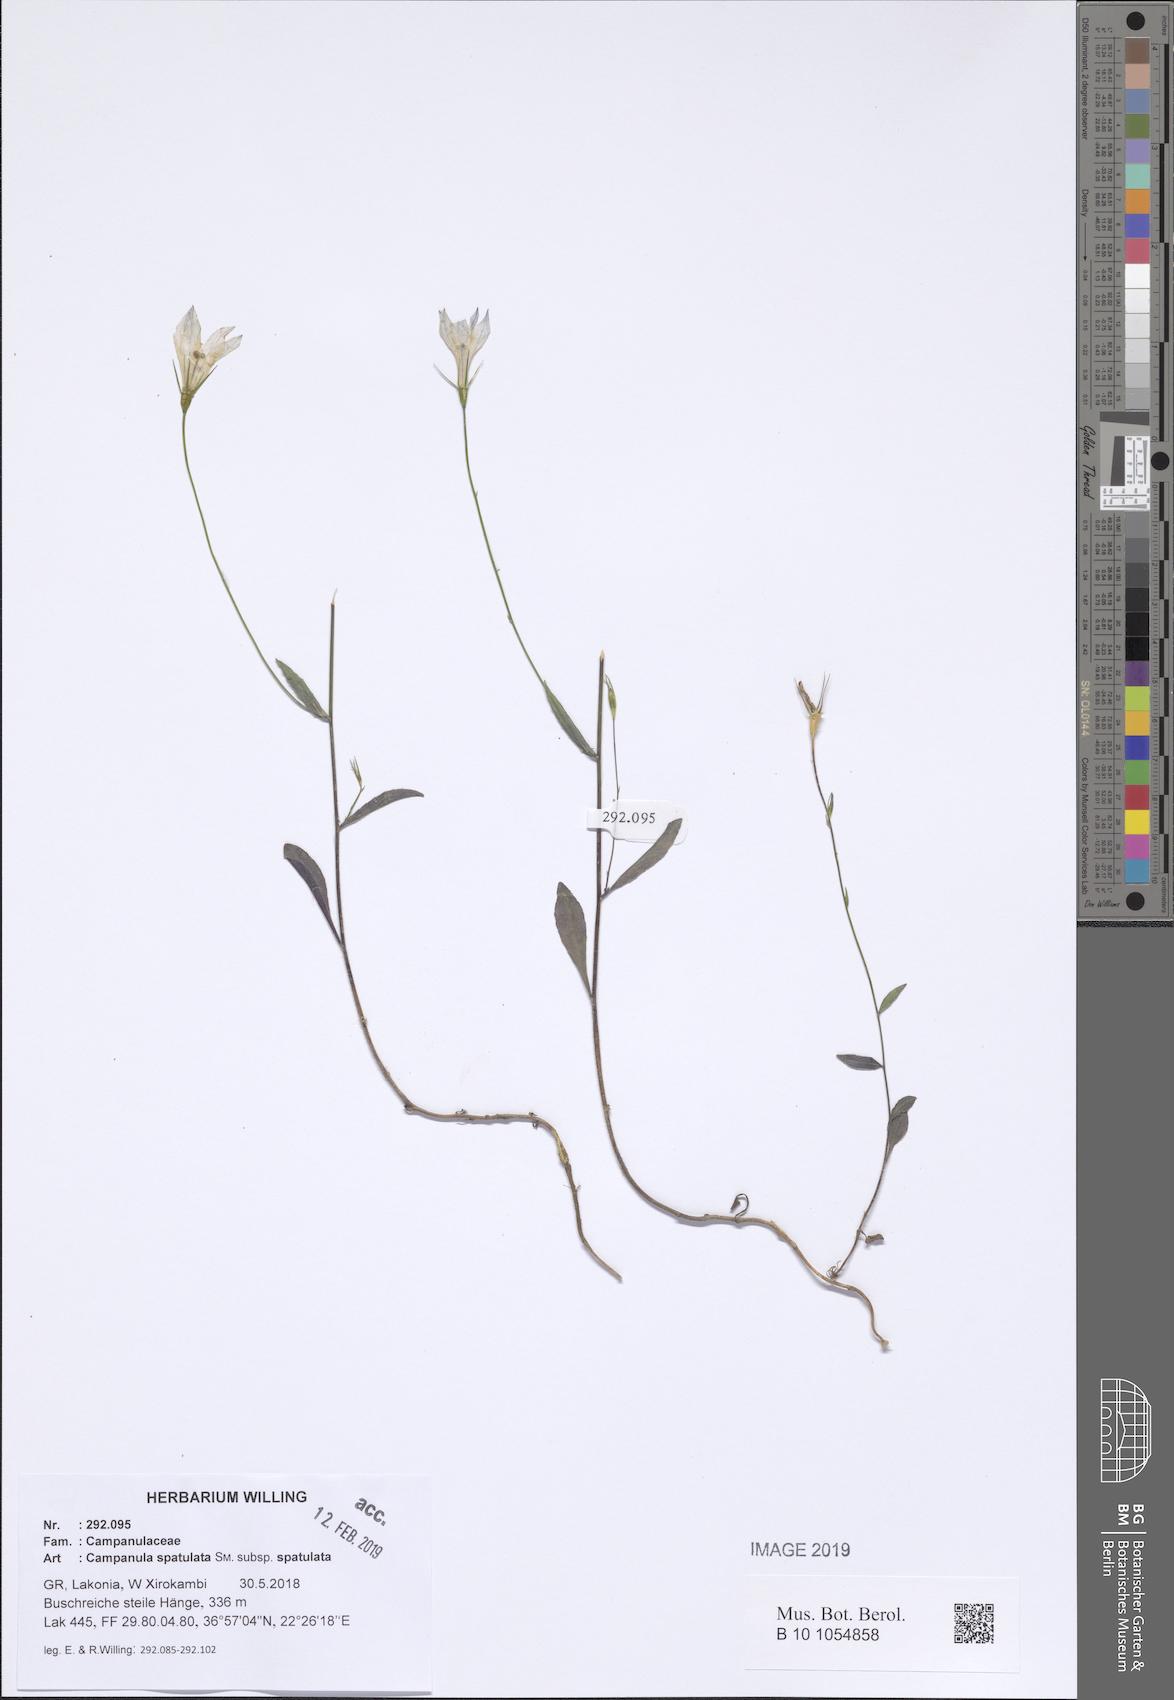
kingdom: Plantae
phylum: Tracheophyta
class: Magnoliopsida
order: Asterales
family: Campanulaceae
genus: Campanula
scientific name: Campanula spatulata
